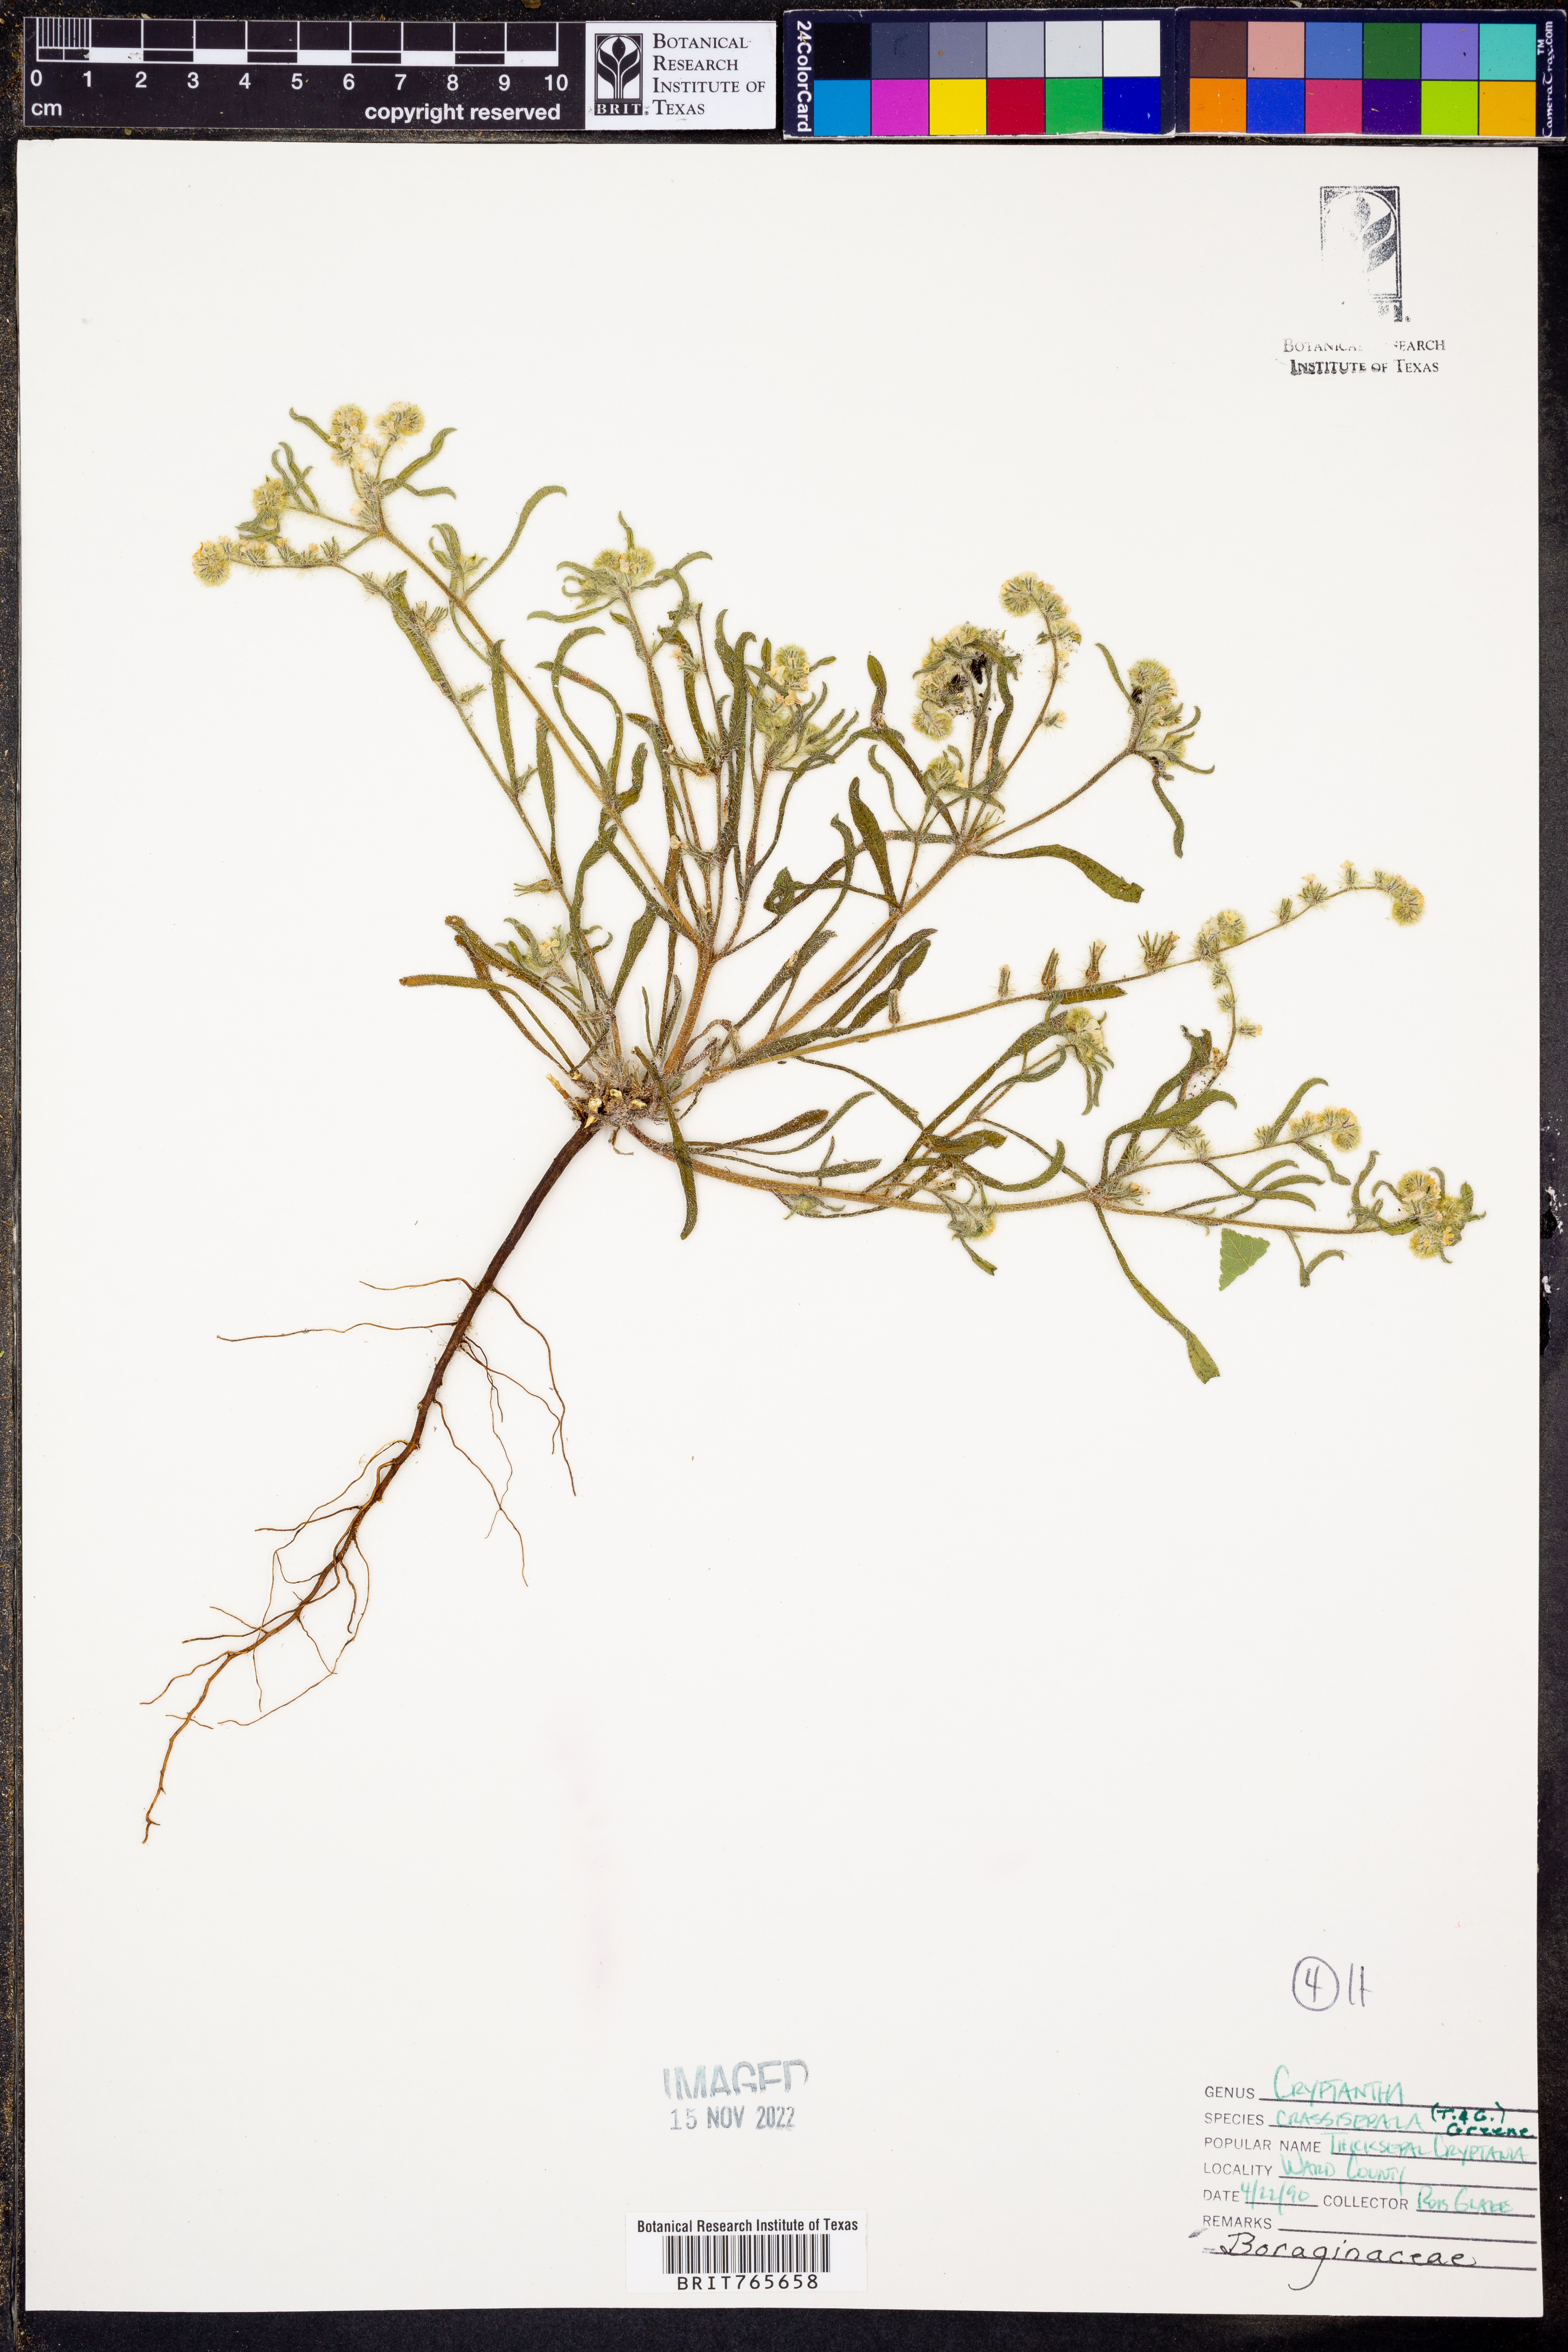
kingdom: Plantae
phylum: Tracheophyta
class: Magnoliopsida
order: Boraginales
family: Boraginaceae
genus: Cryptantha
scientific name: Cryptantha crassisepala
